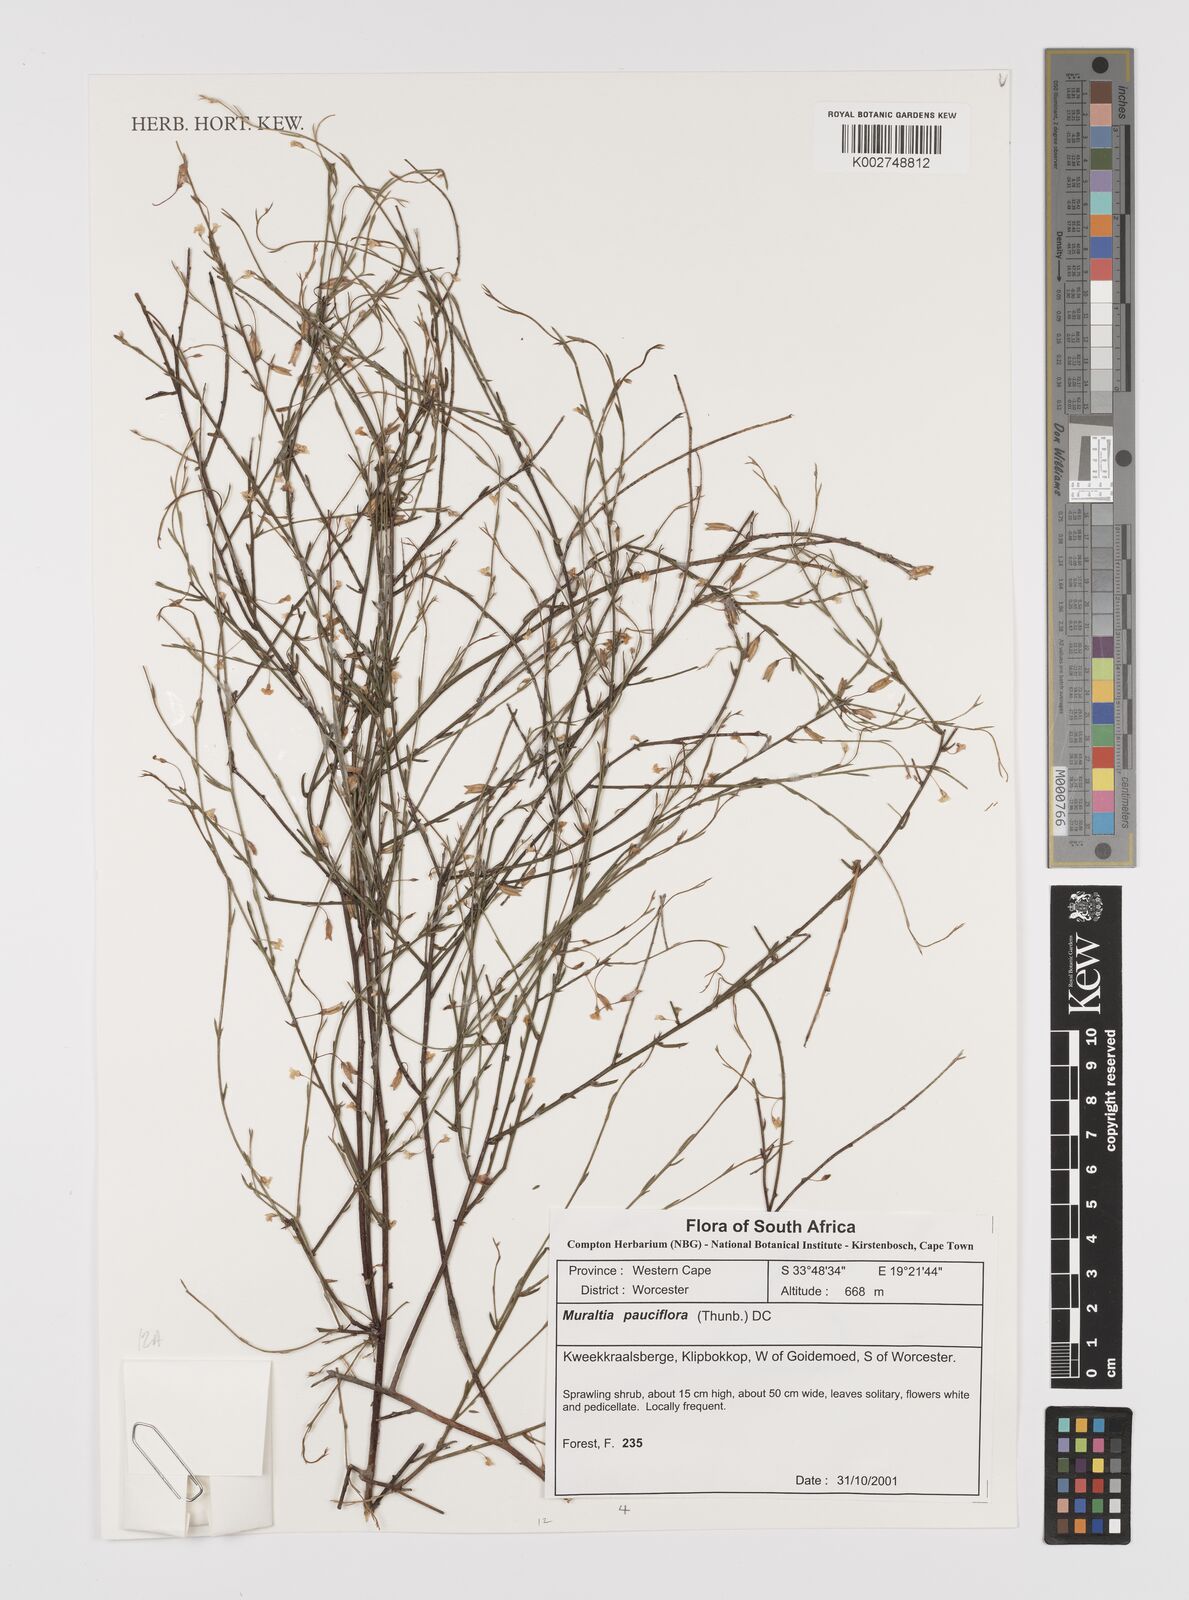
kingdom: Plantae
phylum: Tracheophyta
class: Magnoliopsida
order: Fabales
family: Polygalaceae
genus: Muraltia
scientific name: Muraltia pauciflora
